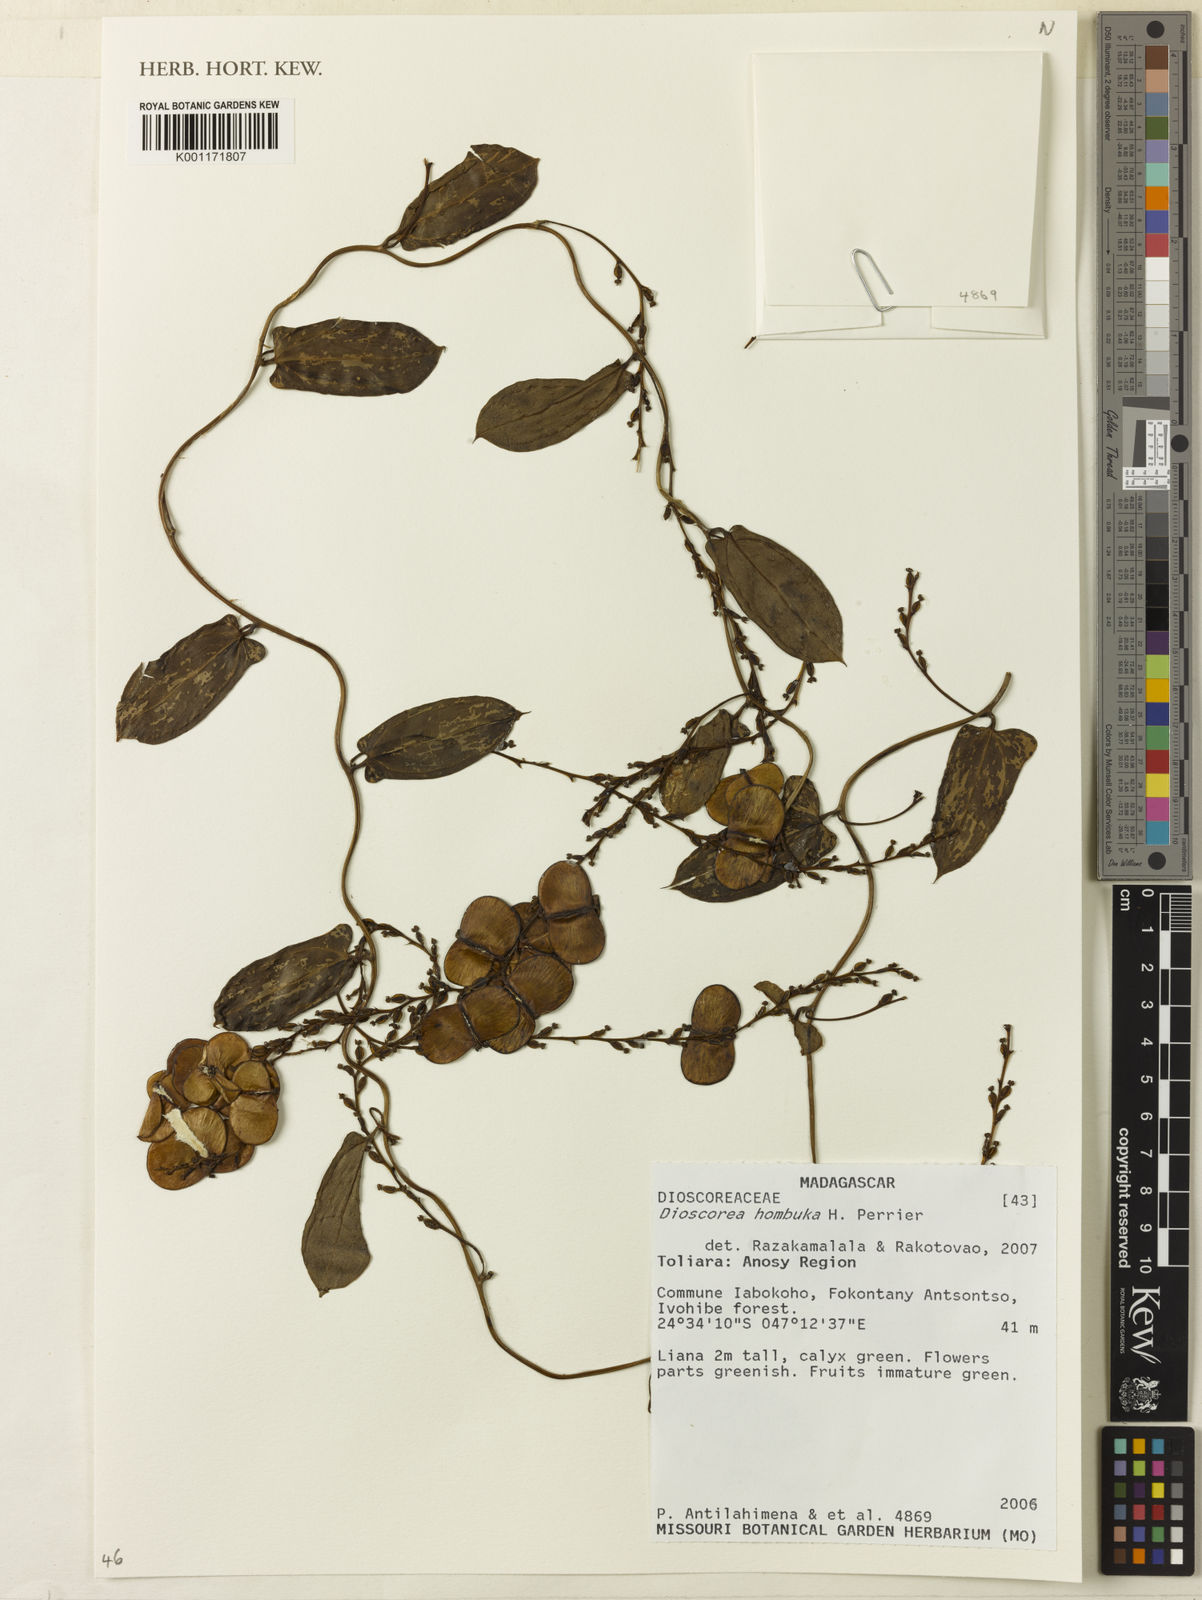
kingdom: Plantae
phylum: Tracheophyta
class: Liliopsida
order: Dioscoreales
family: Dioscoreaceae
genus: Dioscorea
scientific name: Dioscorea hombuka
